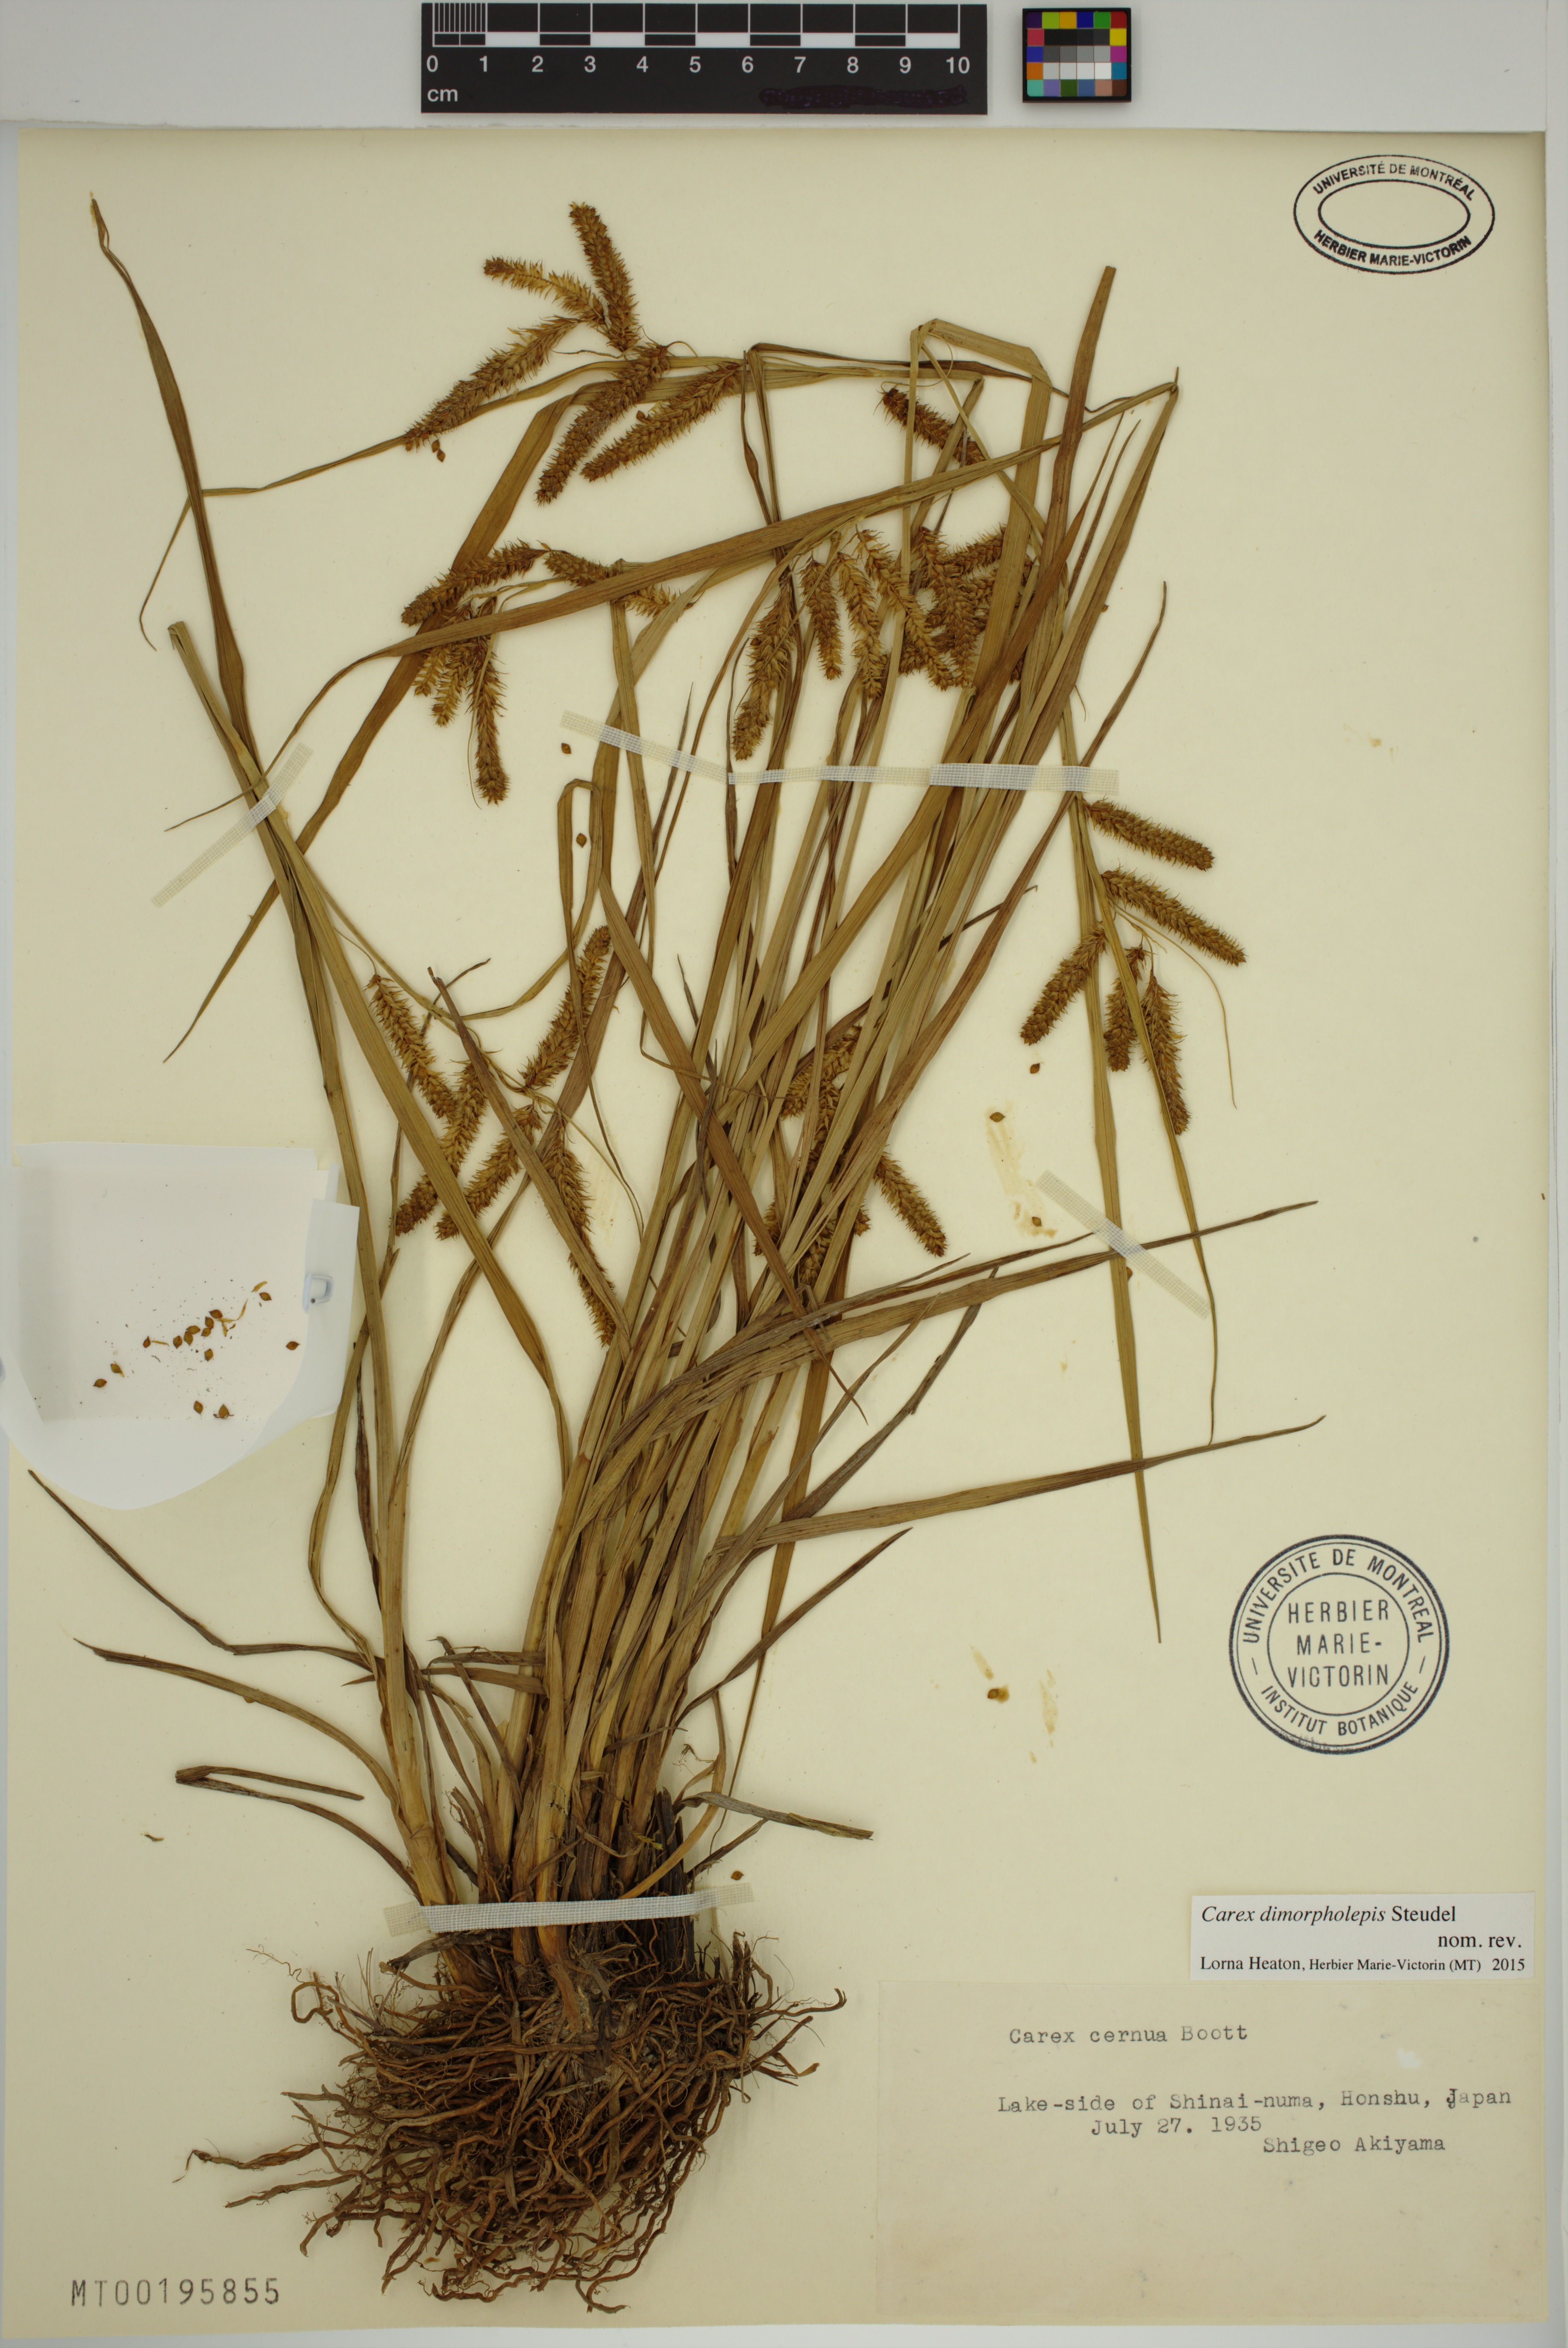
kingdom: Plantae
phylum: Tracheophyta
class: Liliopsida
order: Poales
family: Cyperaceae
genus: Carex
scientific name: Carex dimorpholepis
